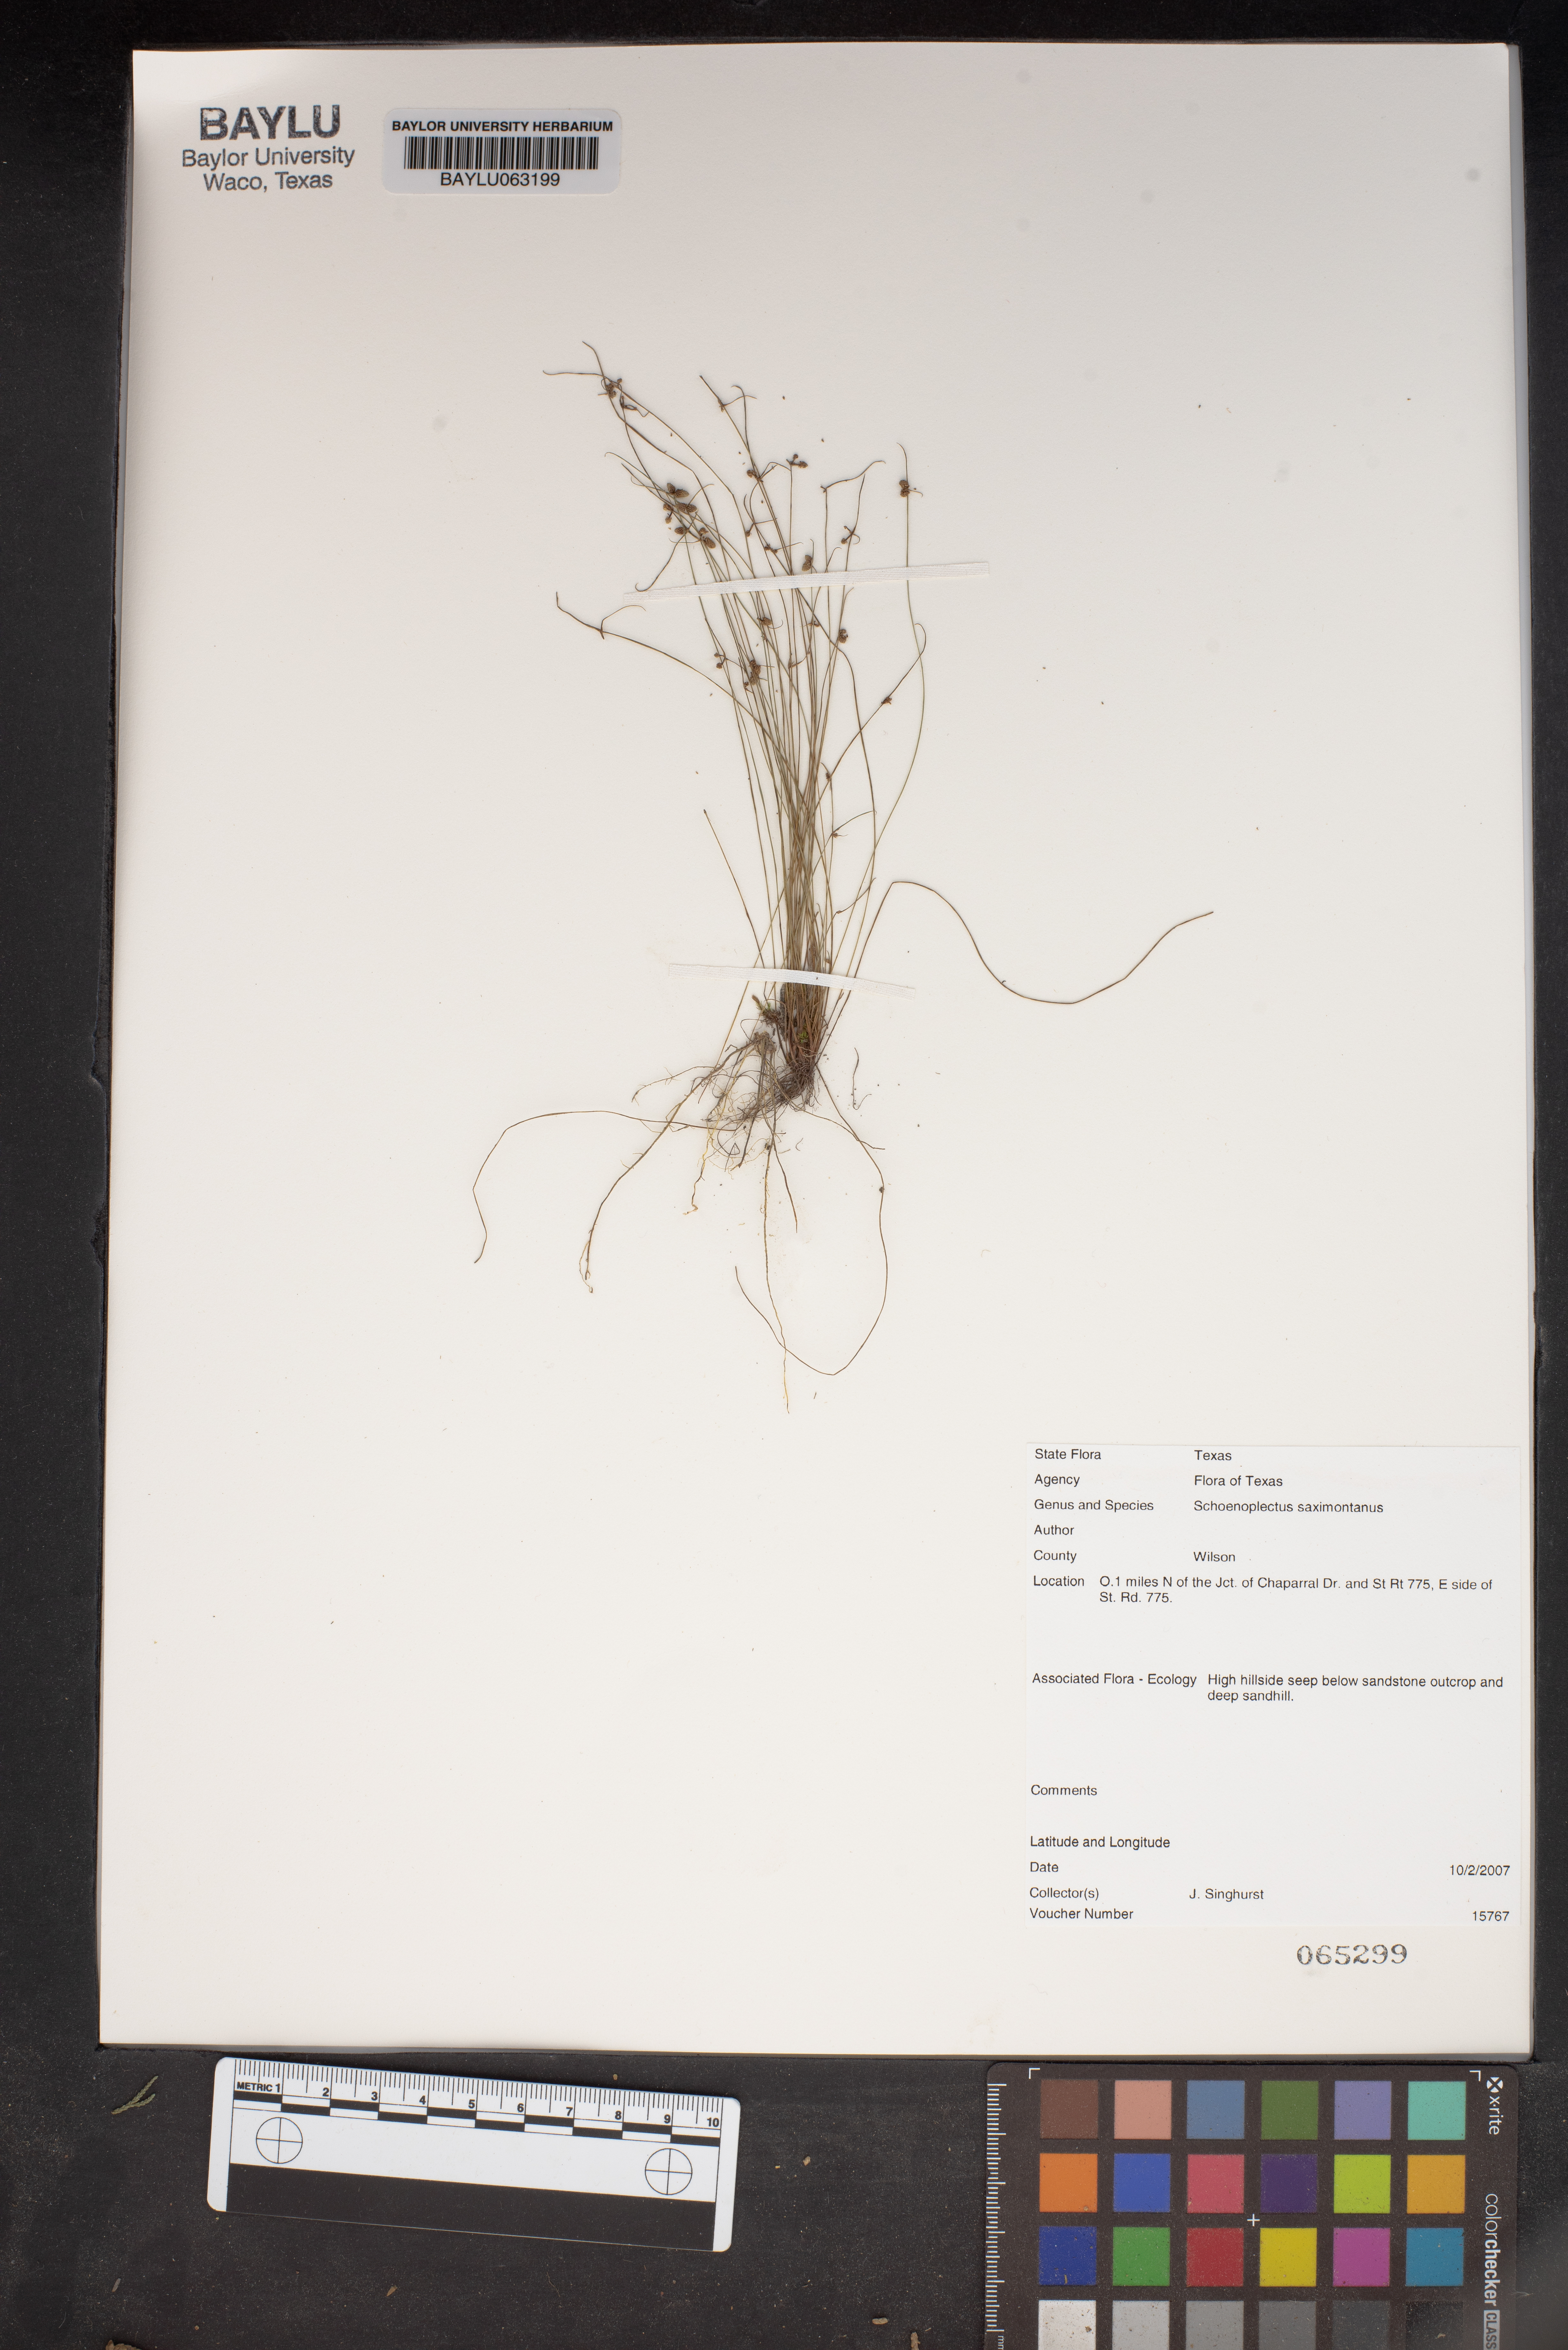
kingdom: Plantae
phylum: Tracheophyta
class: Liliopsida
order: Poales
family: Cyperaceae
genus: Schoenoplectiella
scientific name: Schoenoplectiella saximontana
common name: Rocky mountain clubrush
